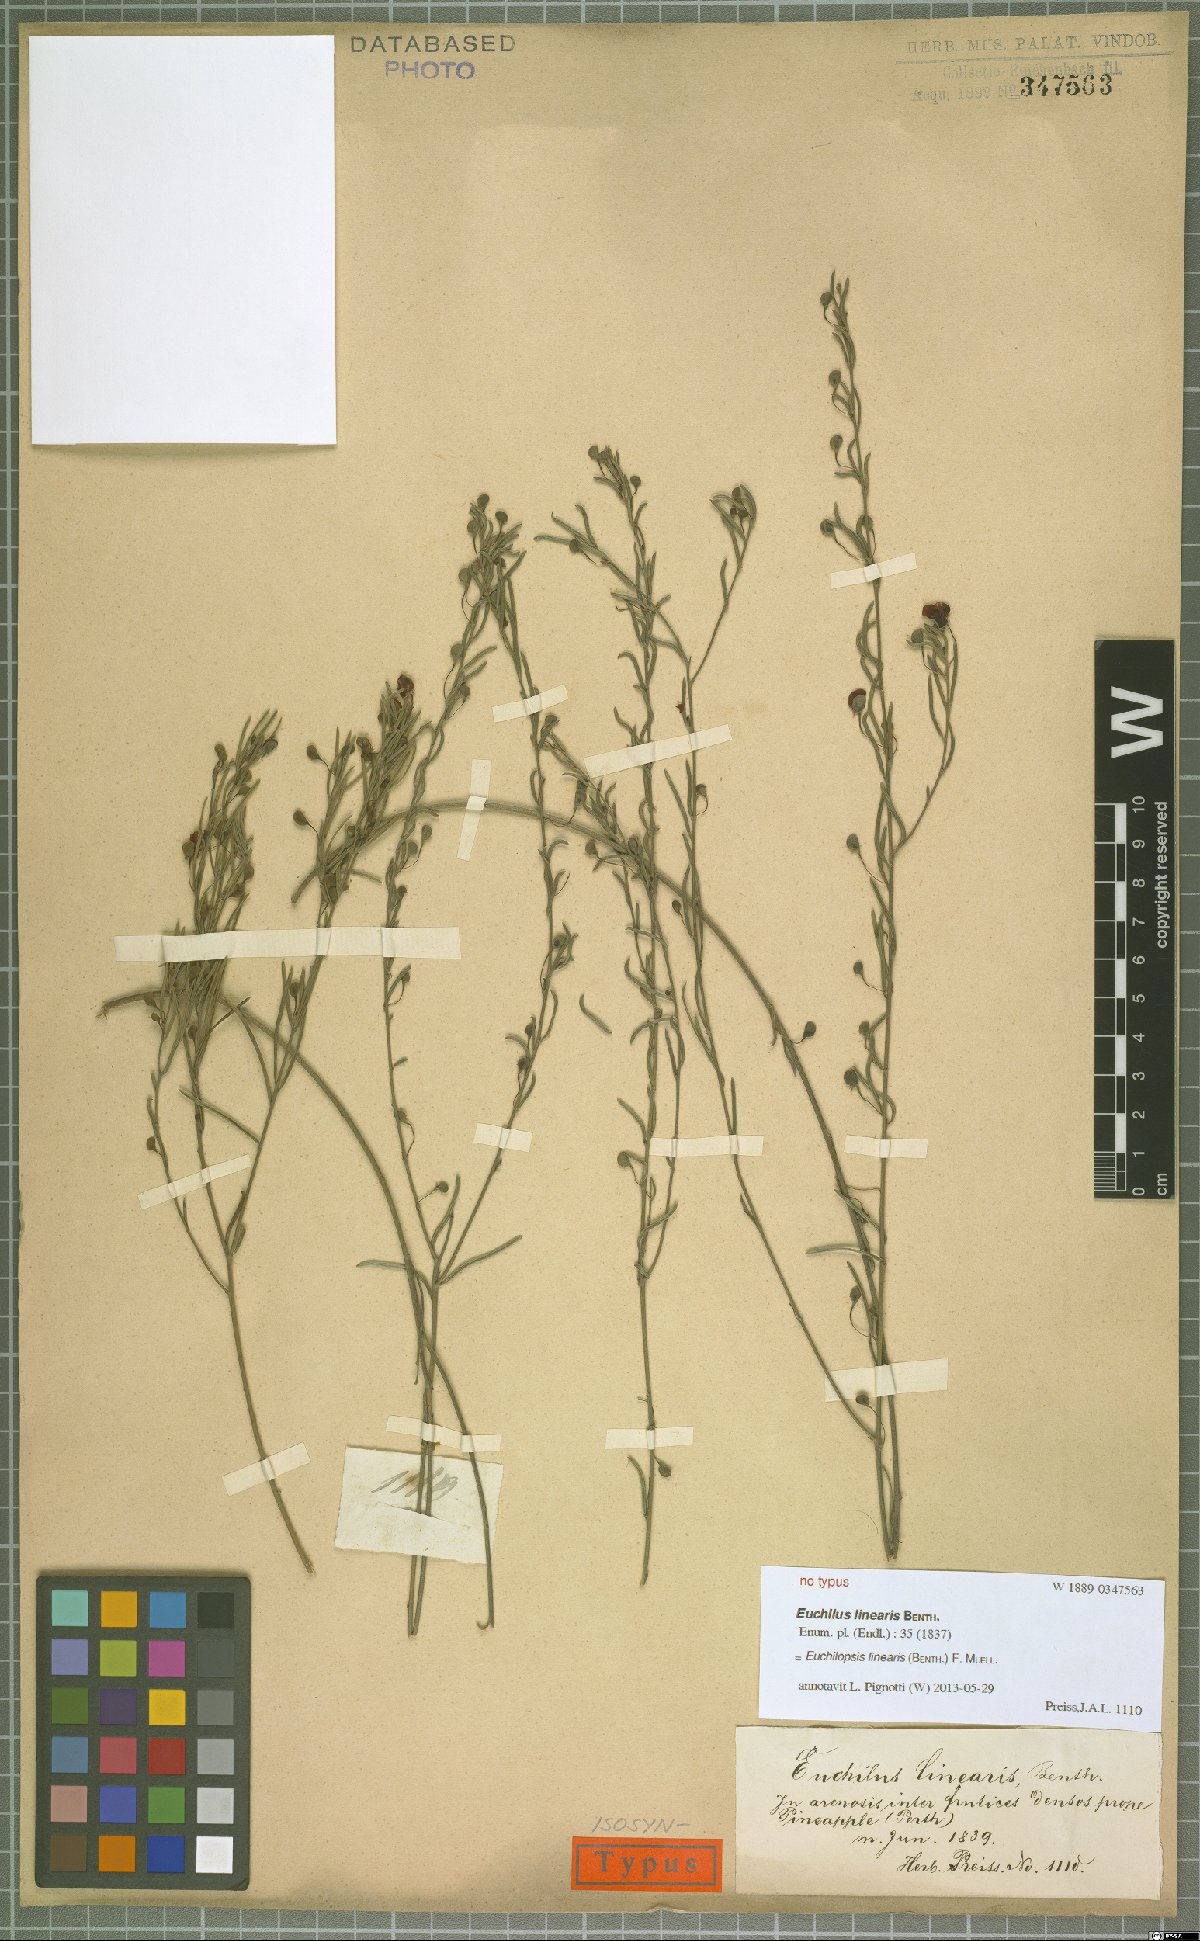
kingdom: Plantae
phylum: Tracheophyta
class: Magnoliopsida
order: Fabales
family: Fabaceae
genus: Euchilopsis
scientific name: Euchilopsis linearis
